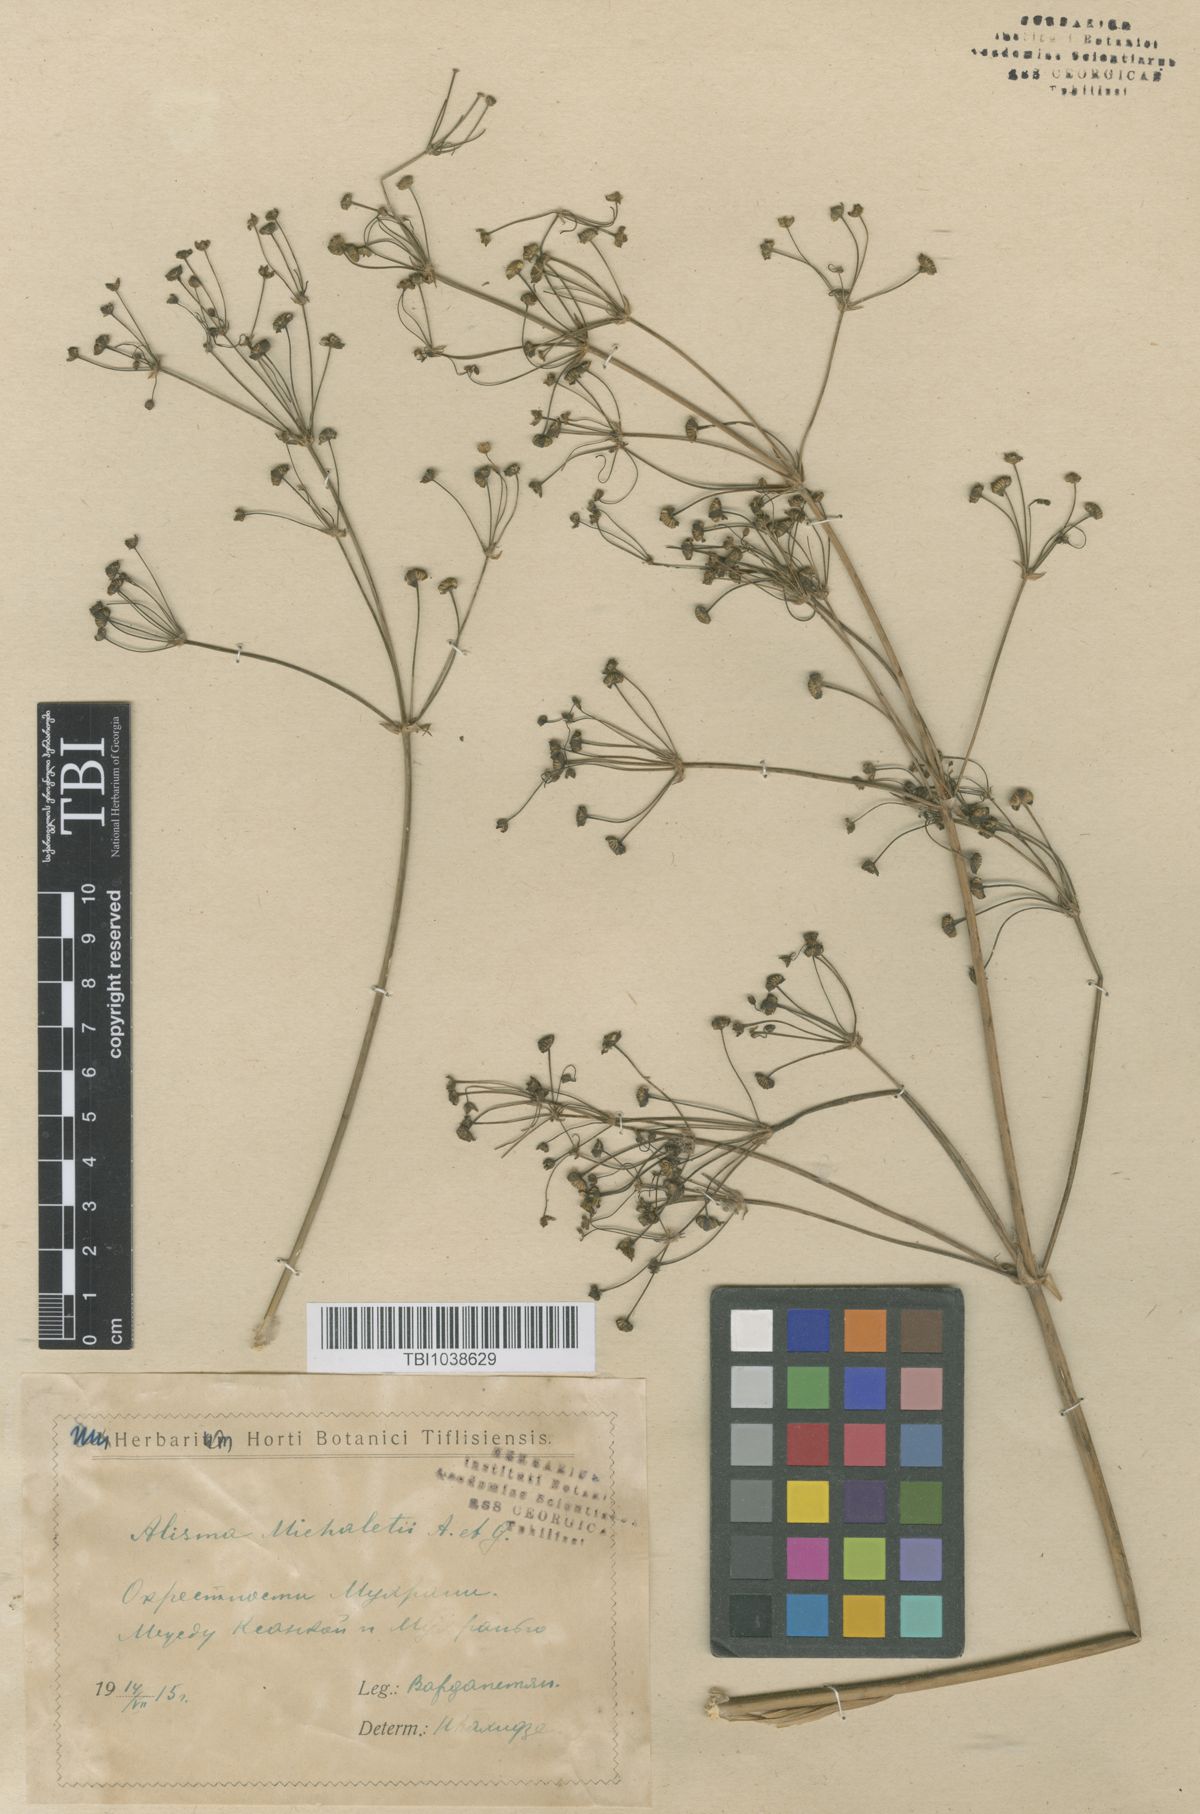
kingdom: Plantae
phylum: Tracheophyta
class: Liliopsida
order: Alismatales
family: Alismataceae
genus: Alisma
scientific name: Alisma plantago-aquatica
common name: Water-plantain
